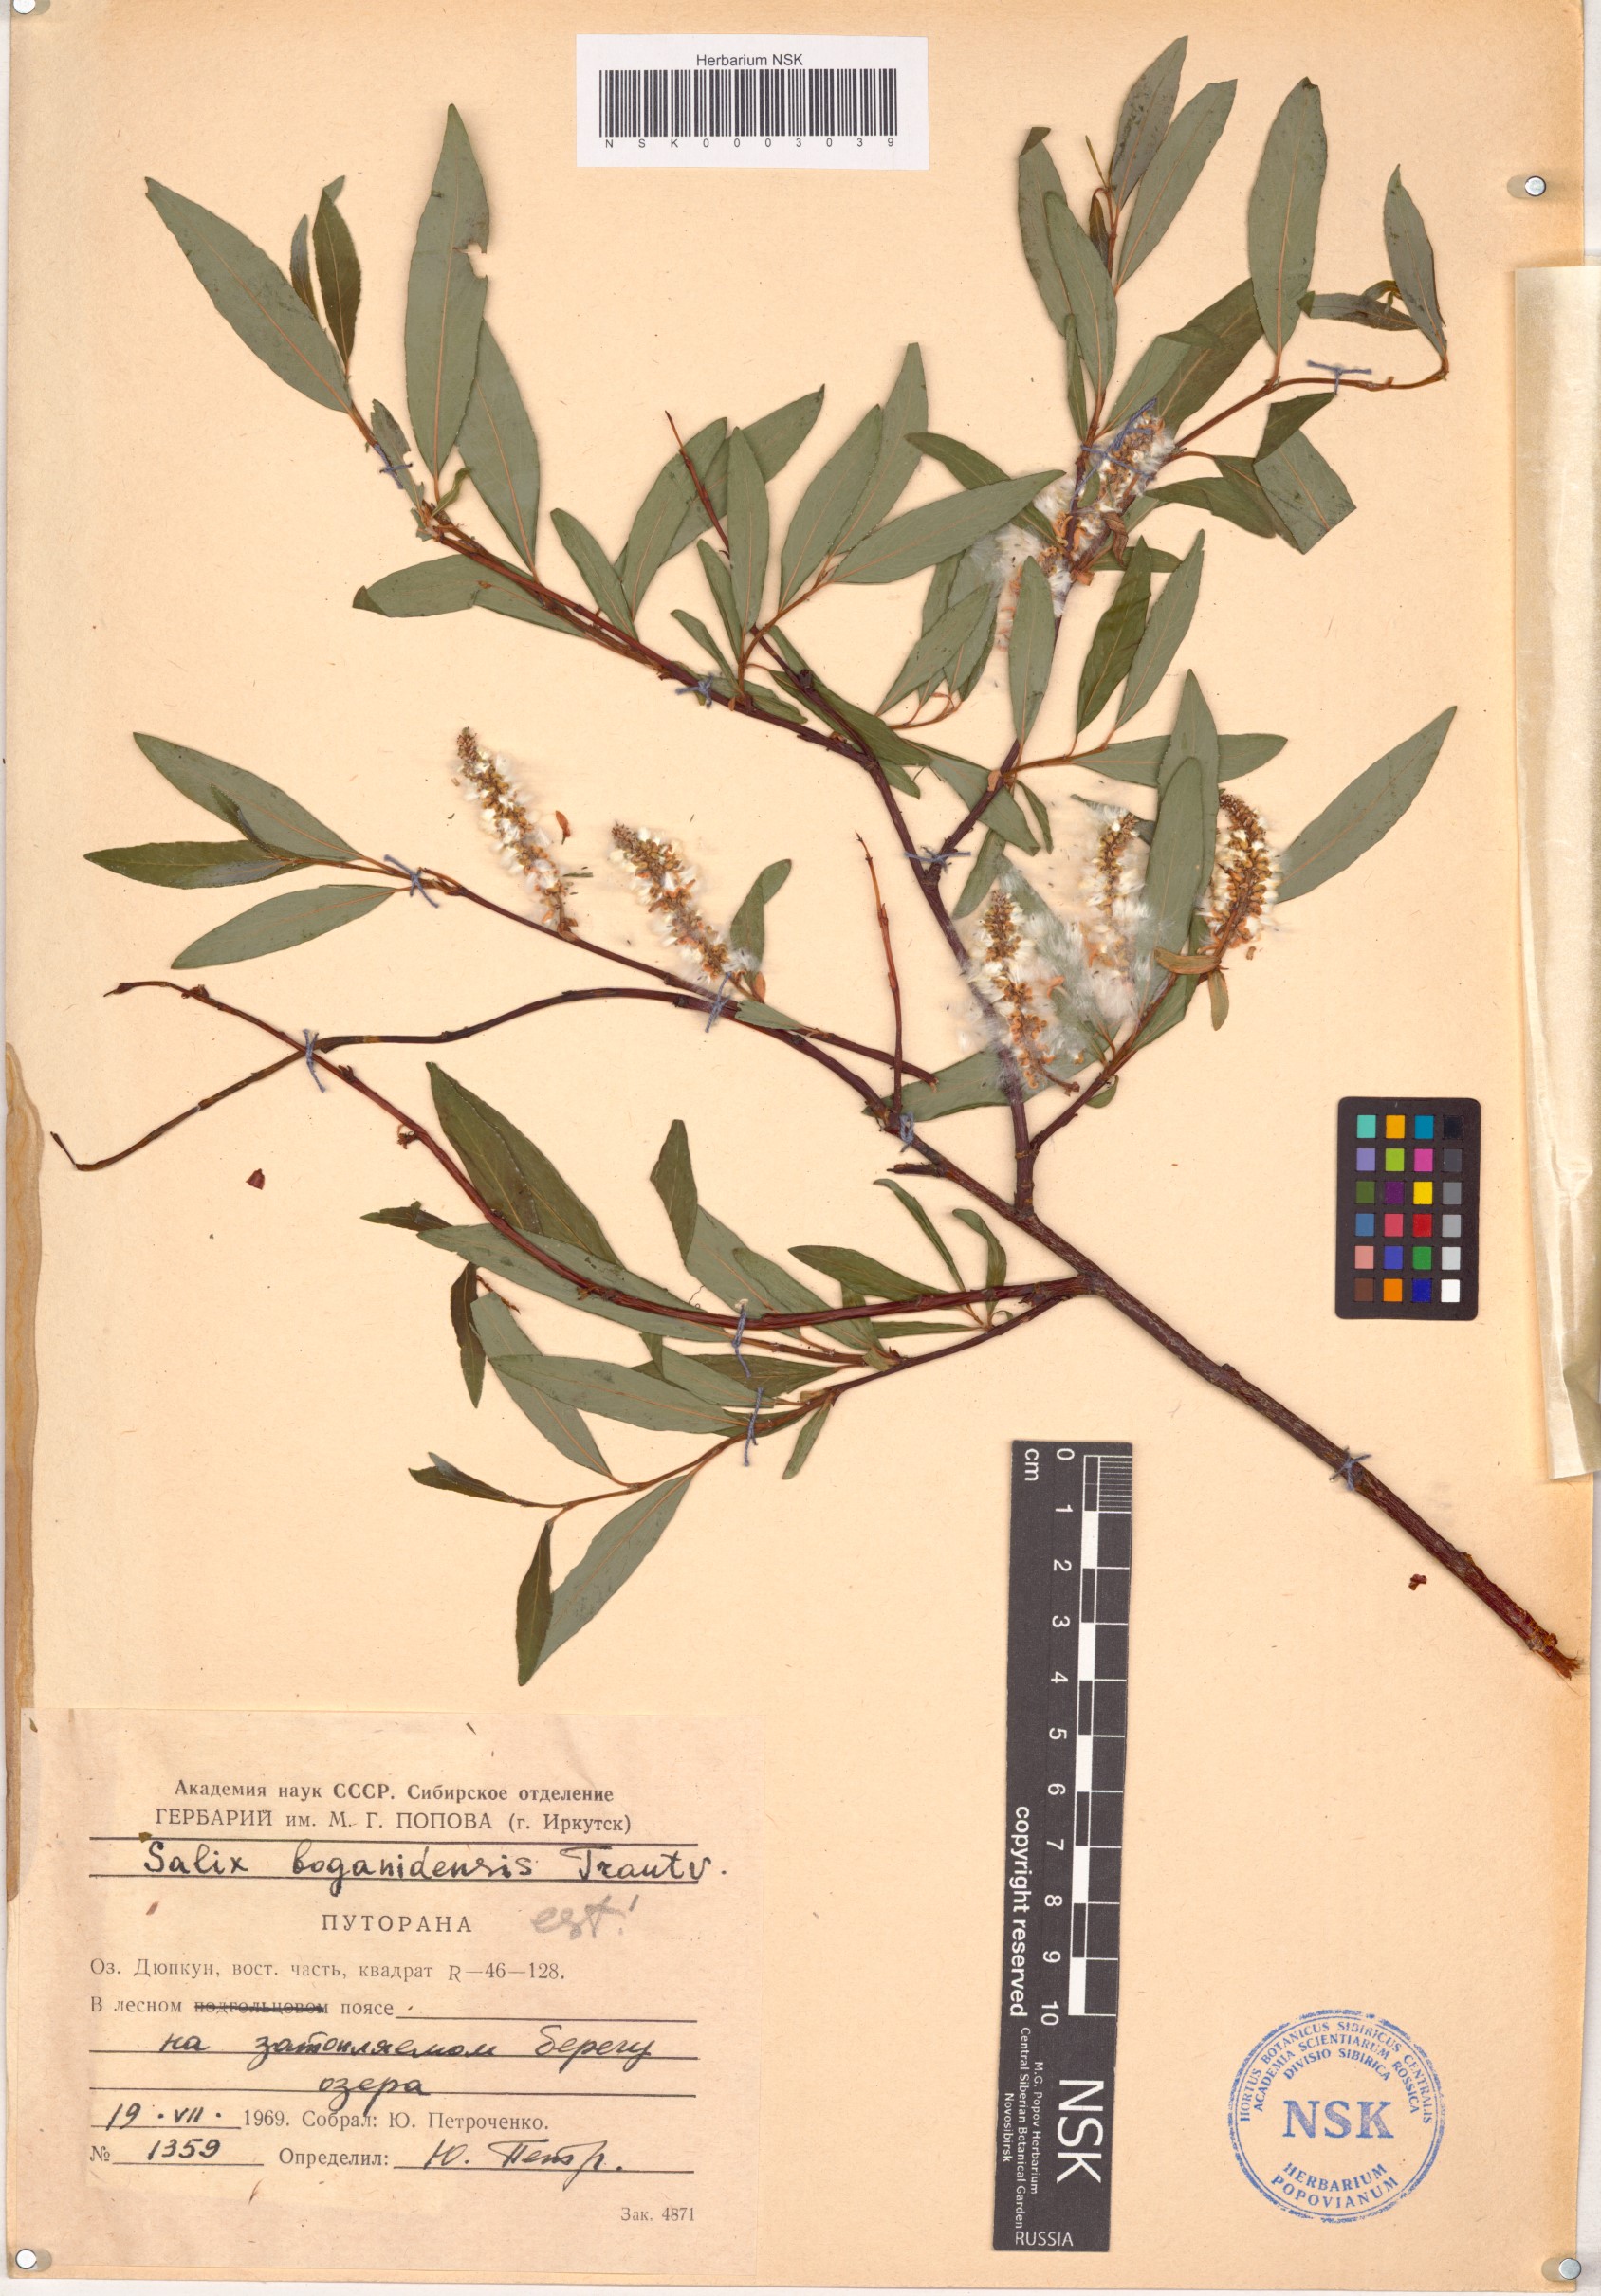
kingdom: Plantae
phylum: Tracheophyta
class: Magnoliopsida
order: Malpighiales
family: Salicaceae
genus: Salix
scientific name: Salix boganidensis
